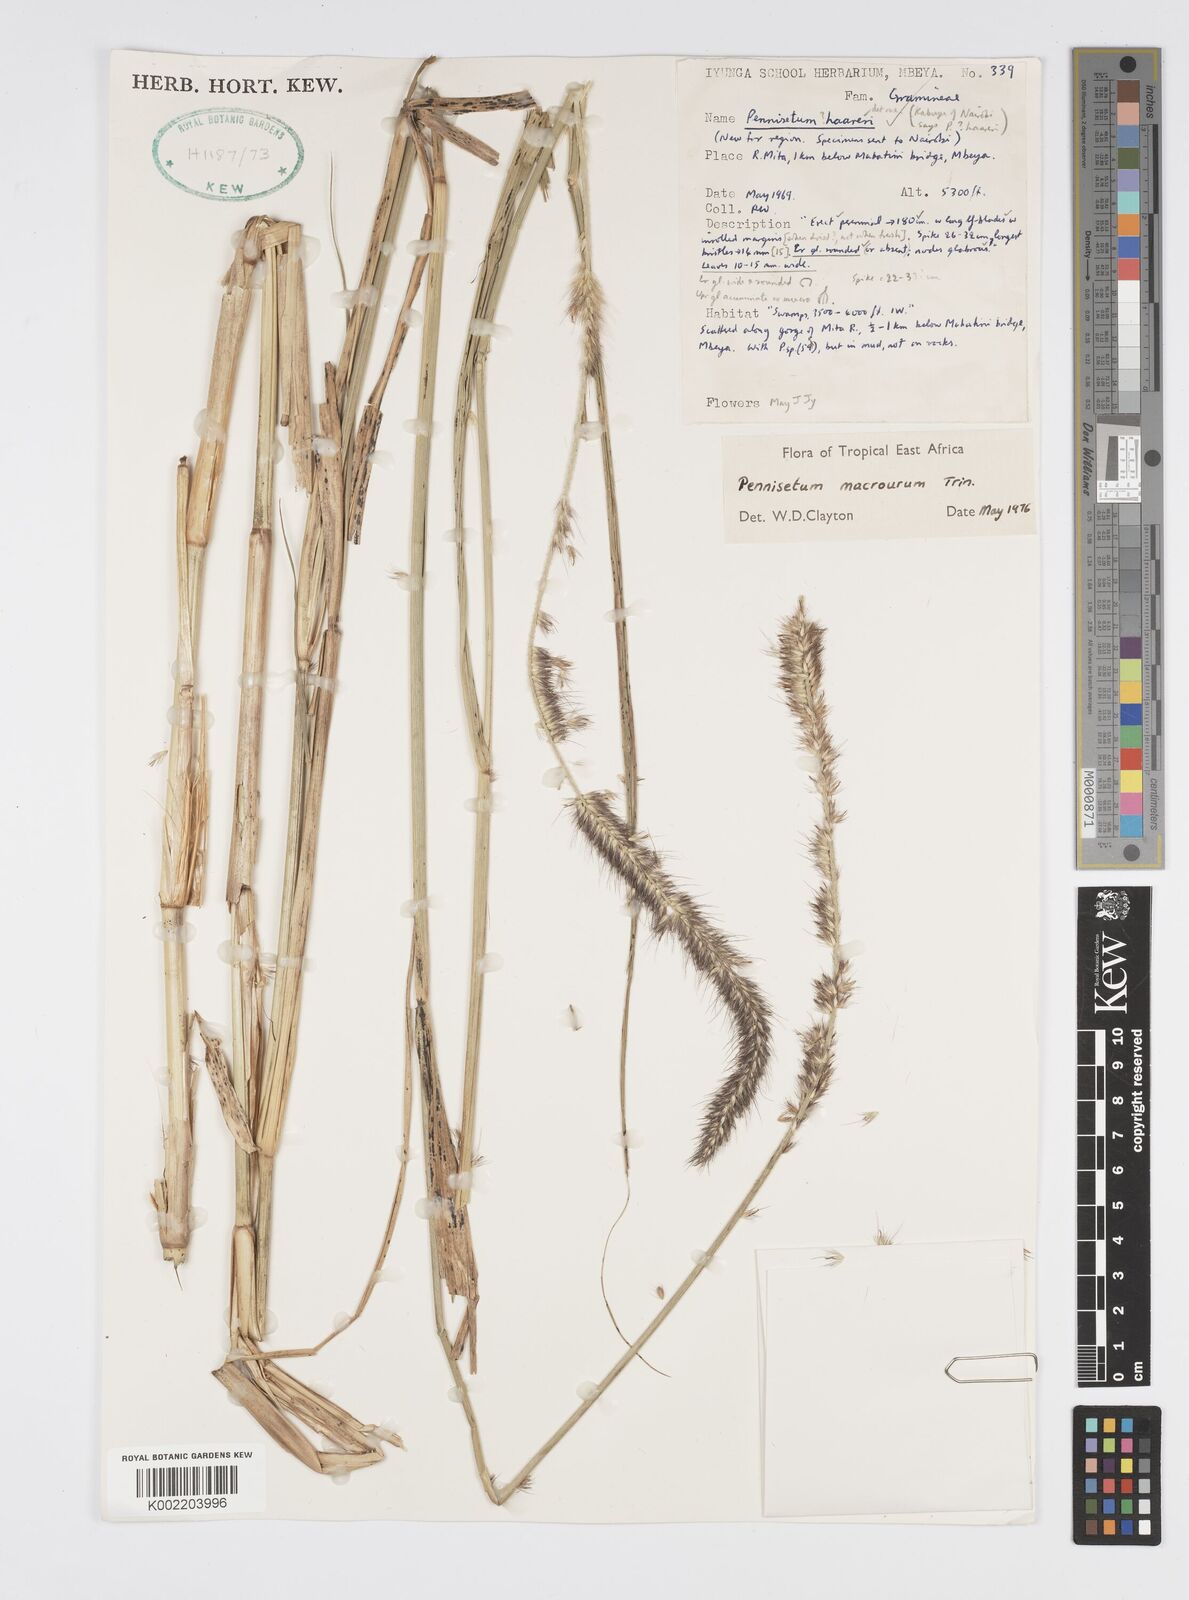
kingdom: Plantae
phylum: Tracheophyta
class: Liliopsida
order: Poales
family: Poaceae
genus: Cenchrus
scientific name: Cenchrus caudatus
